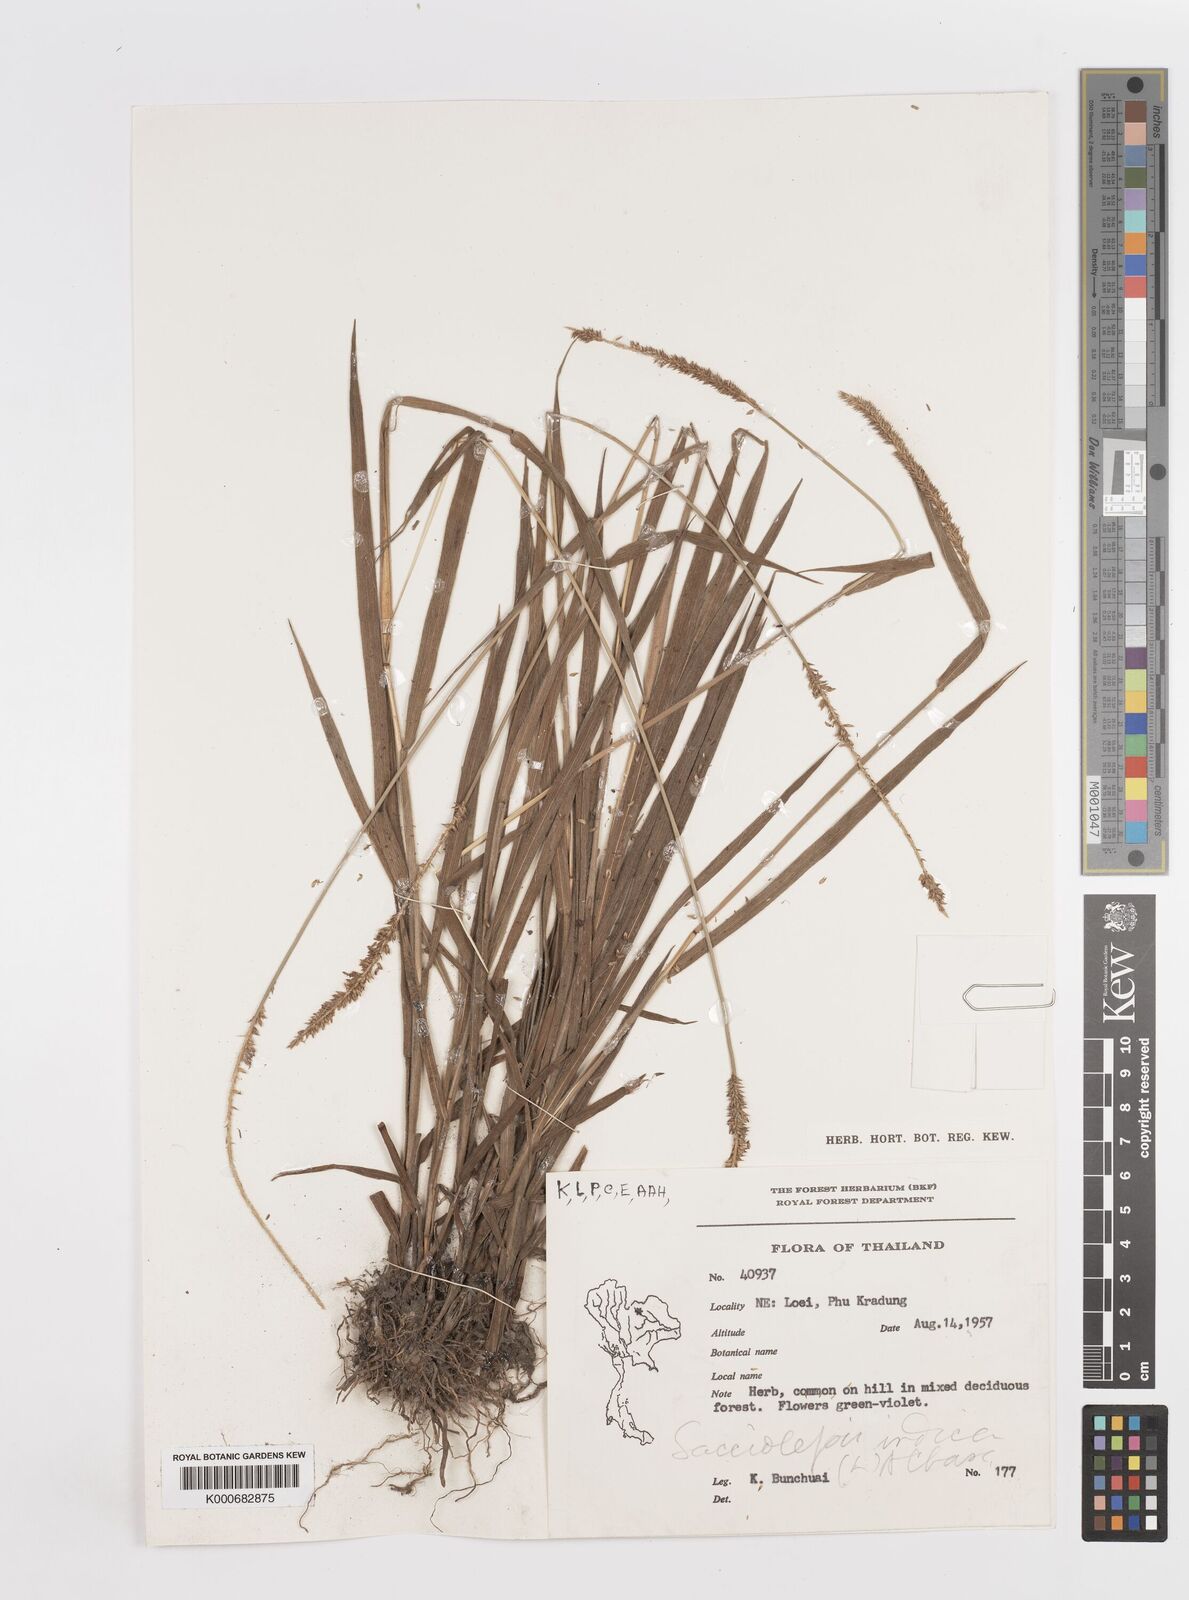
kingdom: Plantae
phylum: Tracheophyta
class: Liliopsida
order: Poales
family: Poaceae
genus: Sacciolepis
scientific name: Sacciolepis indica
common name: Glenwoodgrass
